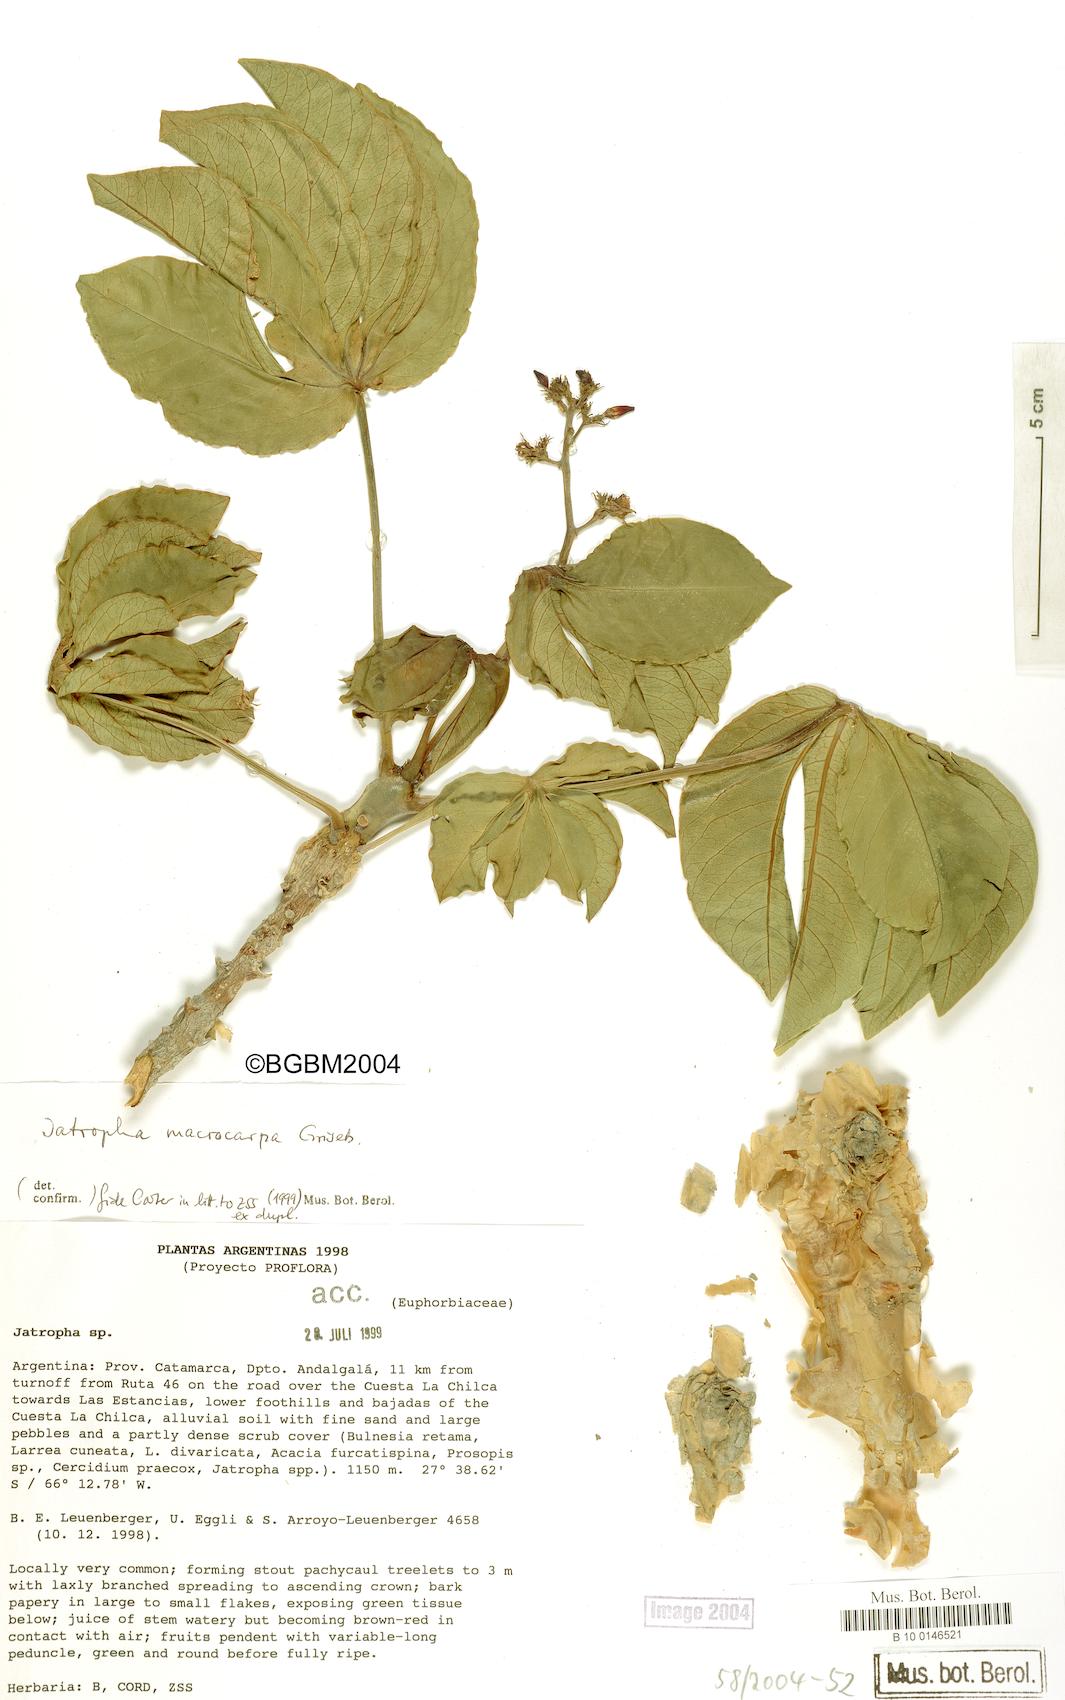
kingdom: Plantae
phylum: Tracheophyta
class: Magnoliopsida
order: Malpighiales
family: Euphorbiaceae
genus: Jatropha
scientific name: Jatropha macrocarpa
